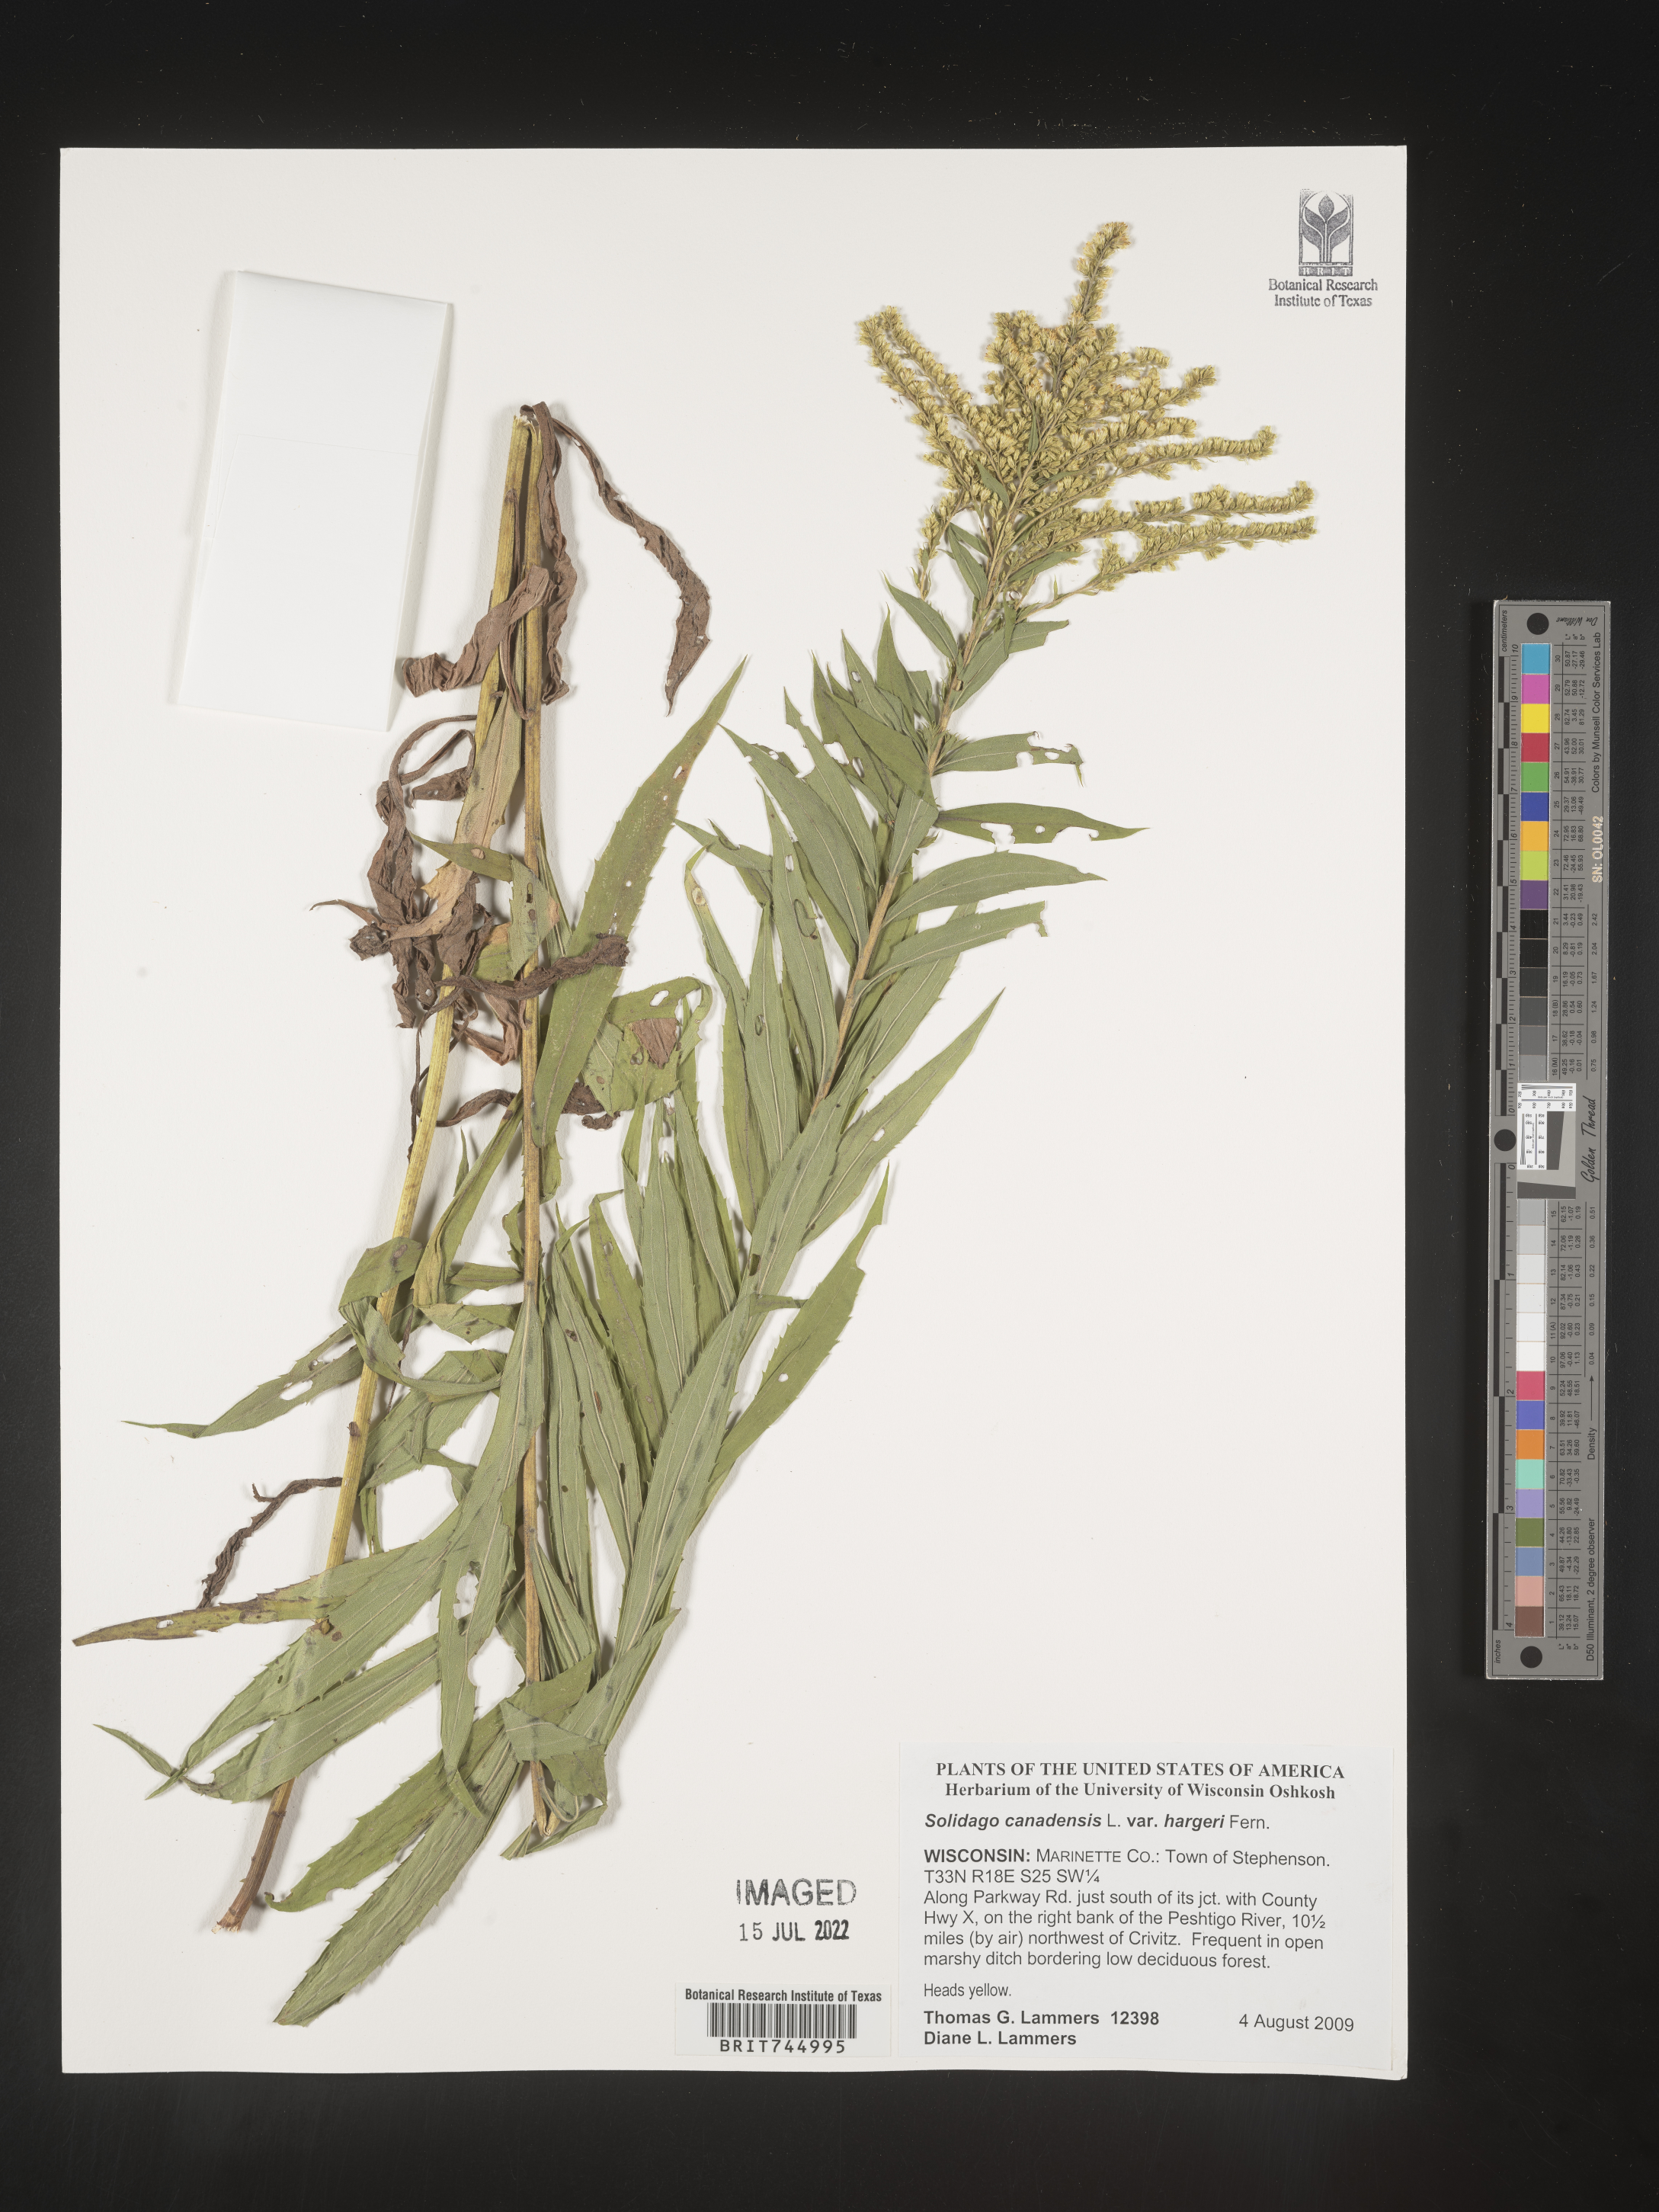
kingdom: Plantae
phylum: Tracheophyta
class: Magnoliopsida
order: Asterales
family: Asteraceae
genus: Solidago
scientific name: Solidago canadensis
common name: Canada goldenrod
